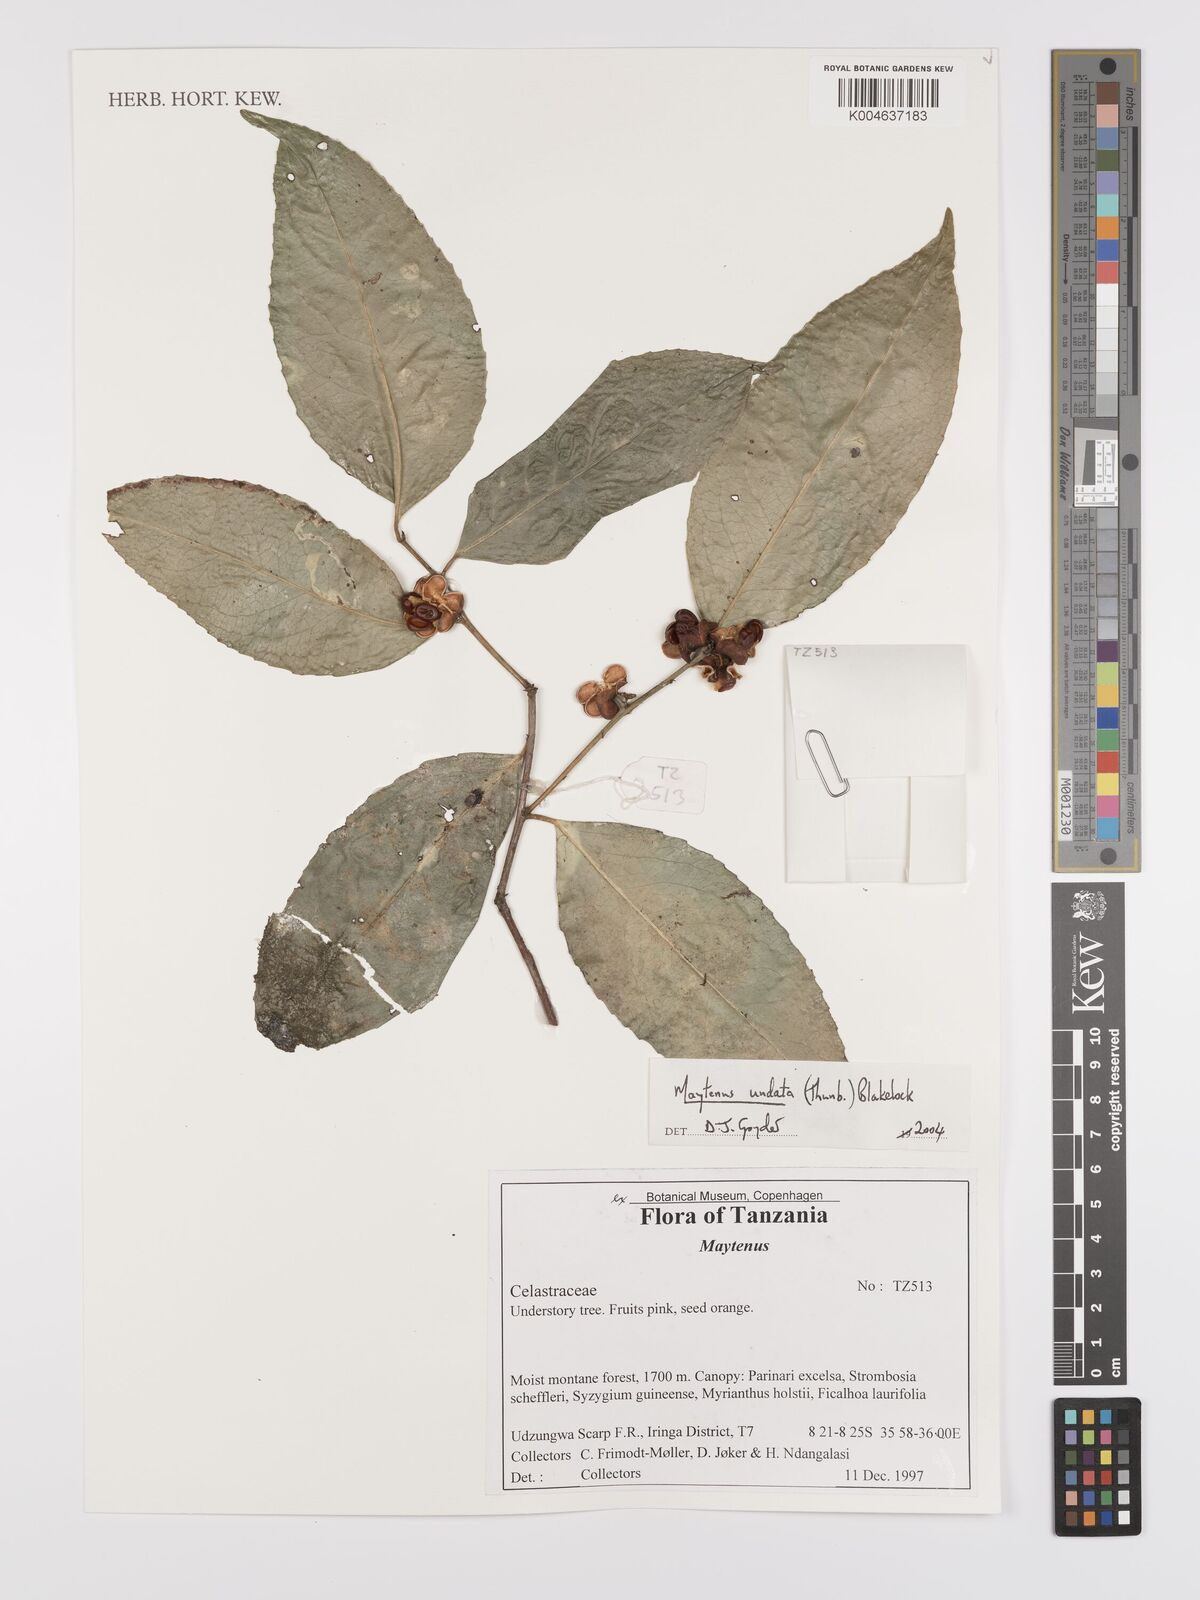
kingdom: Plantae
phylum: Tracheophyta
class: Magnoliopsida
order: Celastrales
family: Celastraceae
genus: Gymnosporia
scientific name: Gymnosporia undata
